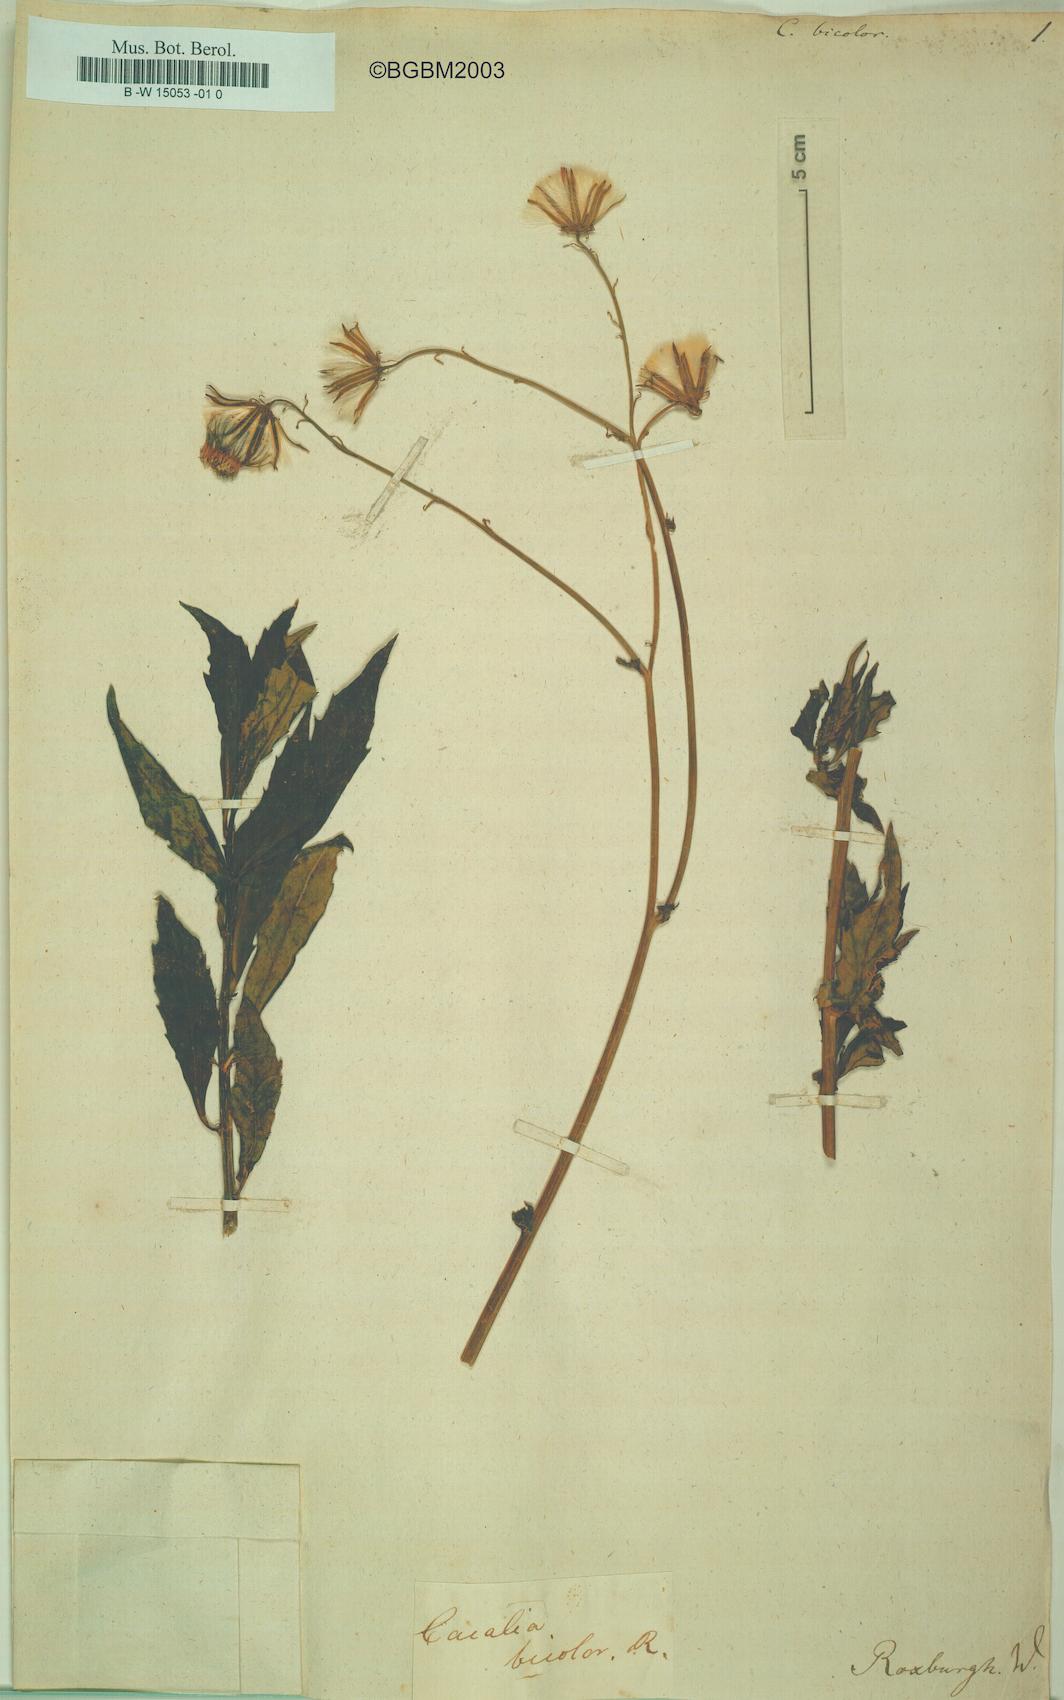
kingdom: Plantae
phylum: Tracheophyta
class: Magnoliopsida
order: Asterales
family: Asteraceae
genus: Gynura
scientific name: Gynura bicolor
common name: Red-vegetable
